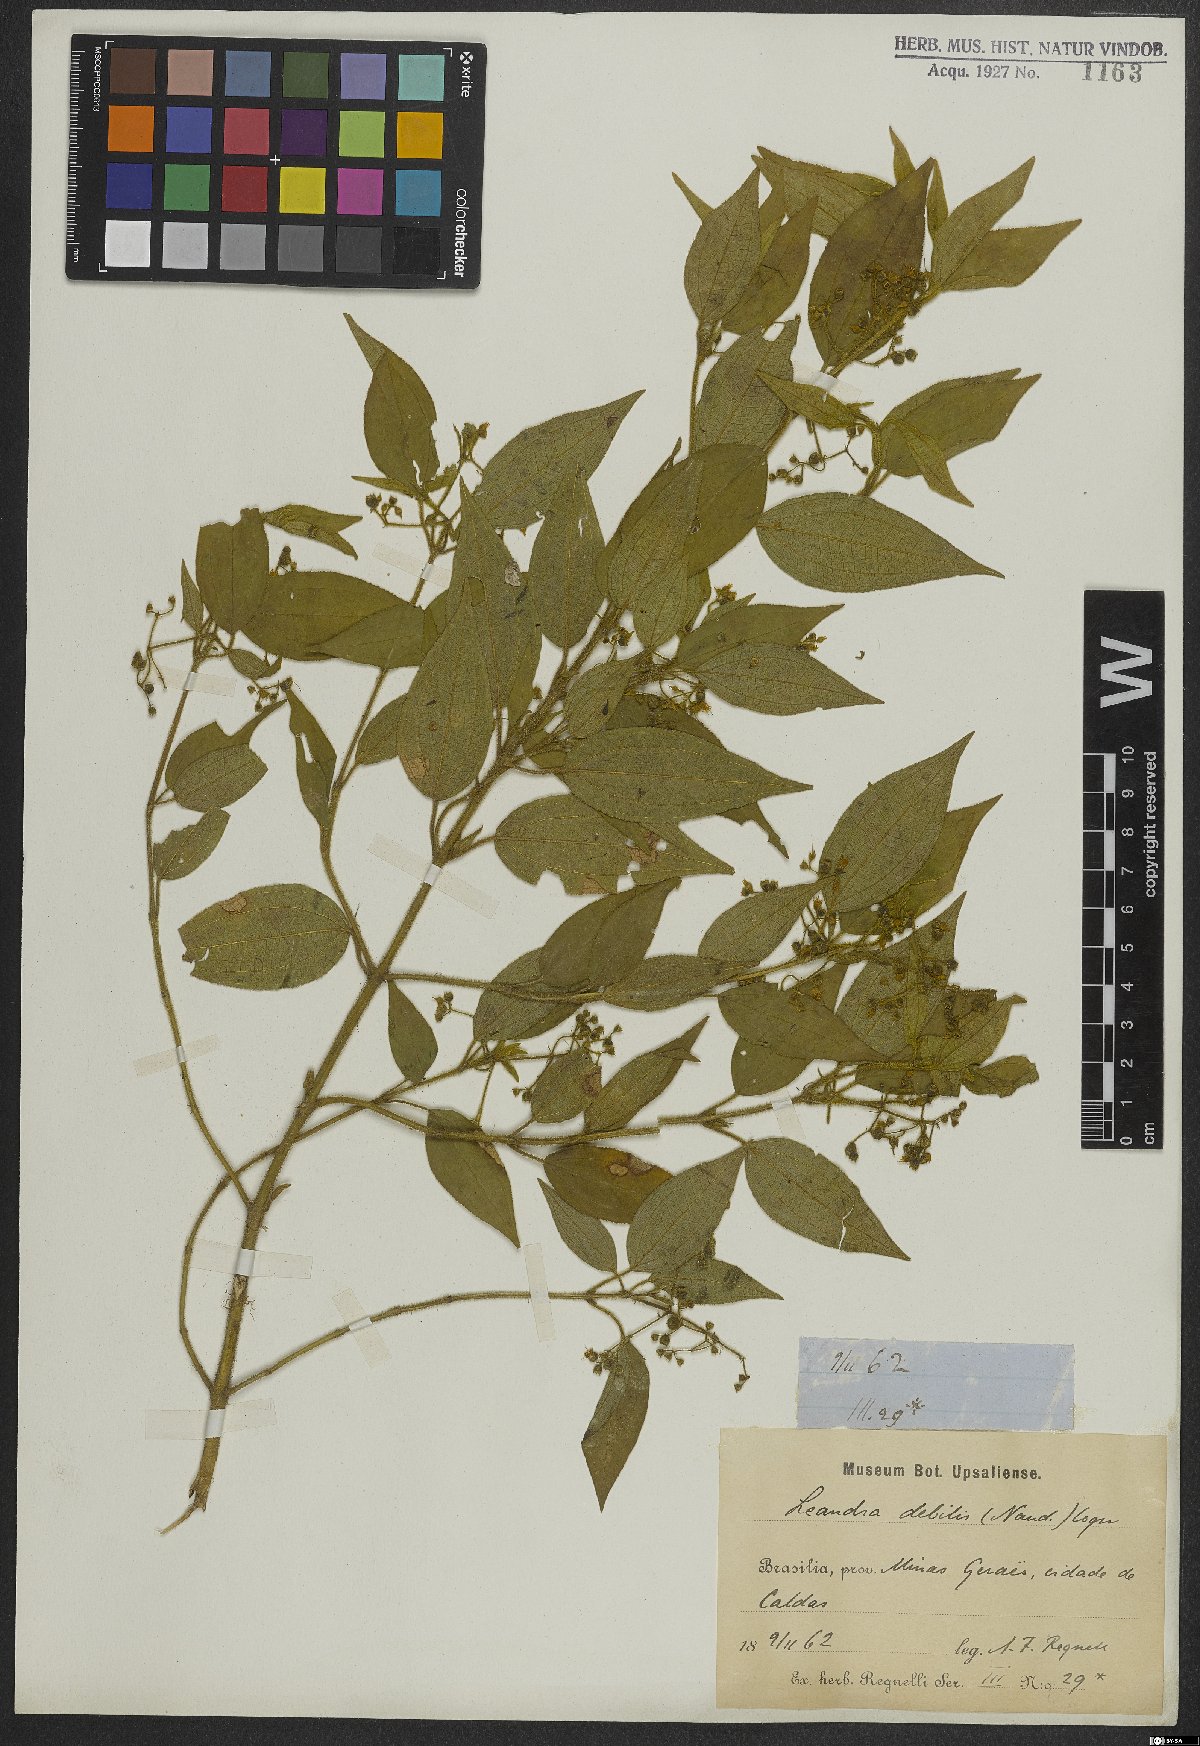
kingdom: Plantae
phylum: Tracheophyta
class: Magnoliopsida
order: Myrtales
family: Melastomataceae
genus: Miconia
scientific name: Miconia leadebilis
